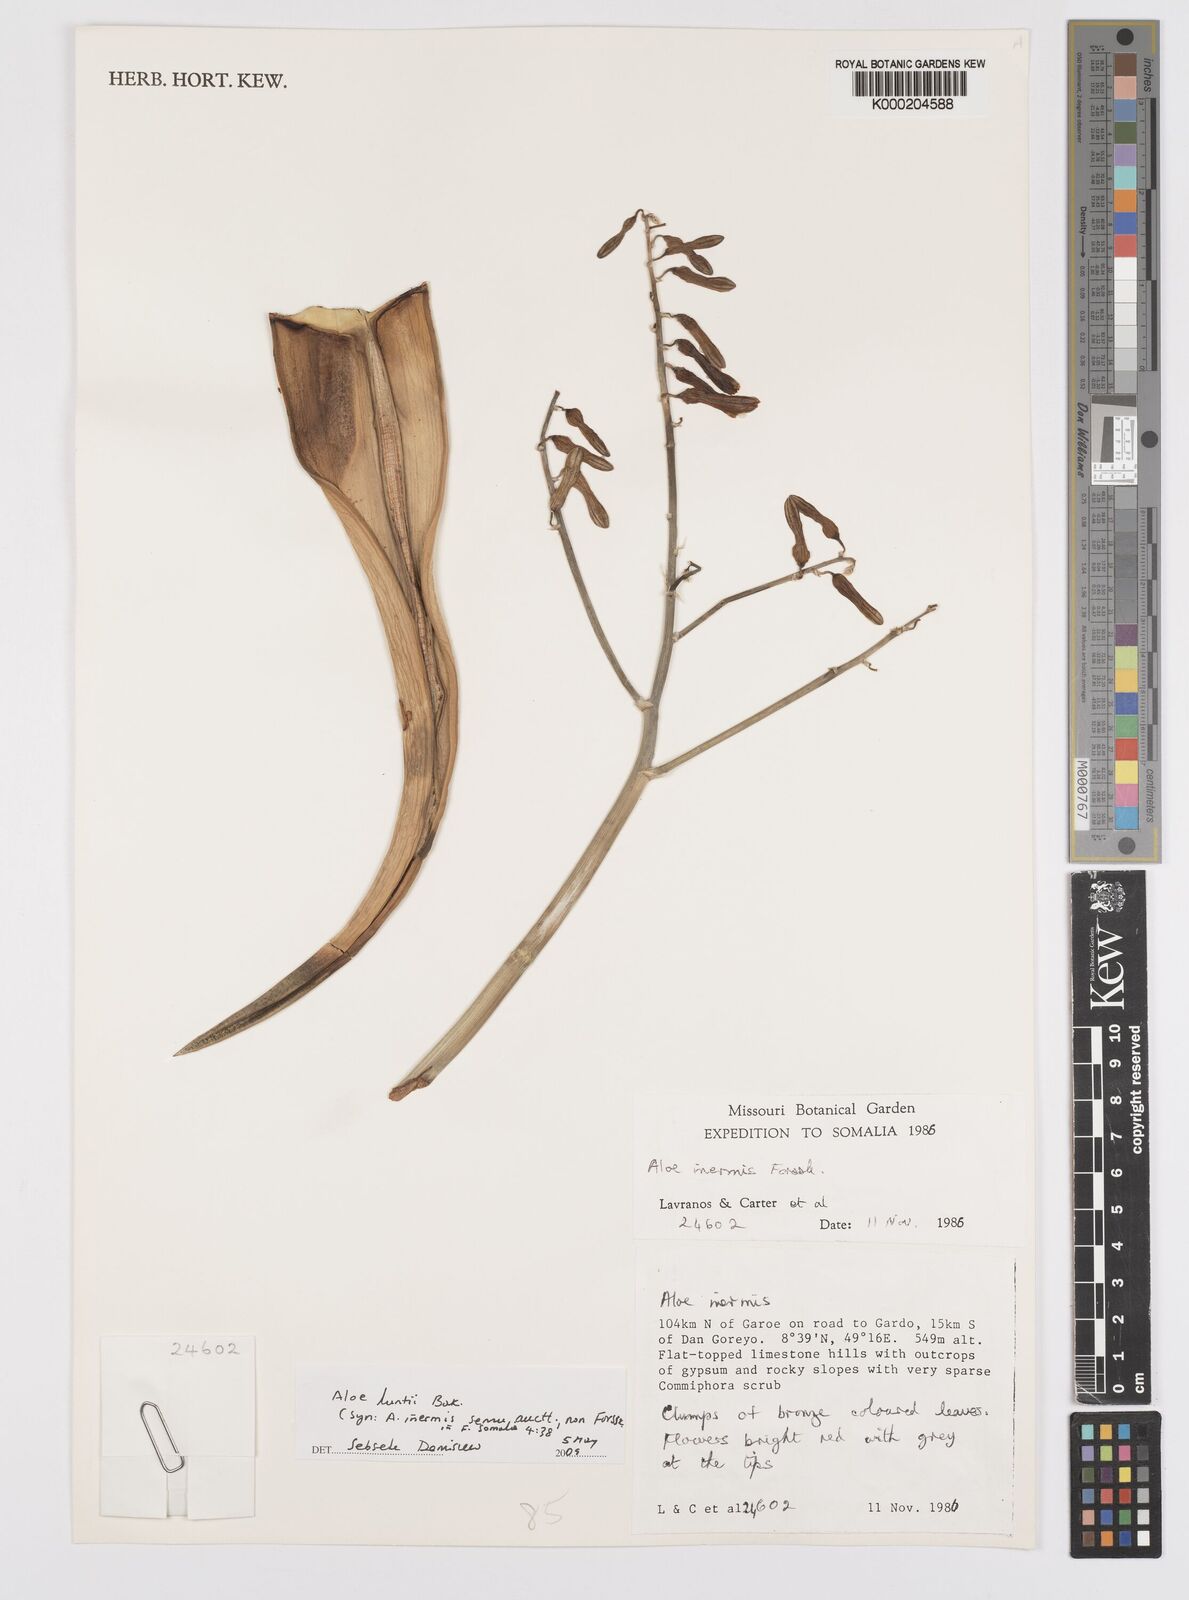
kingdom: Plantae
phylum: Tracheophyta
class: Liliopsida
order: Asparagales
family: Asphodelaceae
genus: Aloe
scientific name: Aloe luntii
